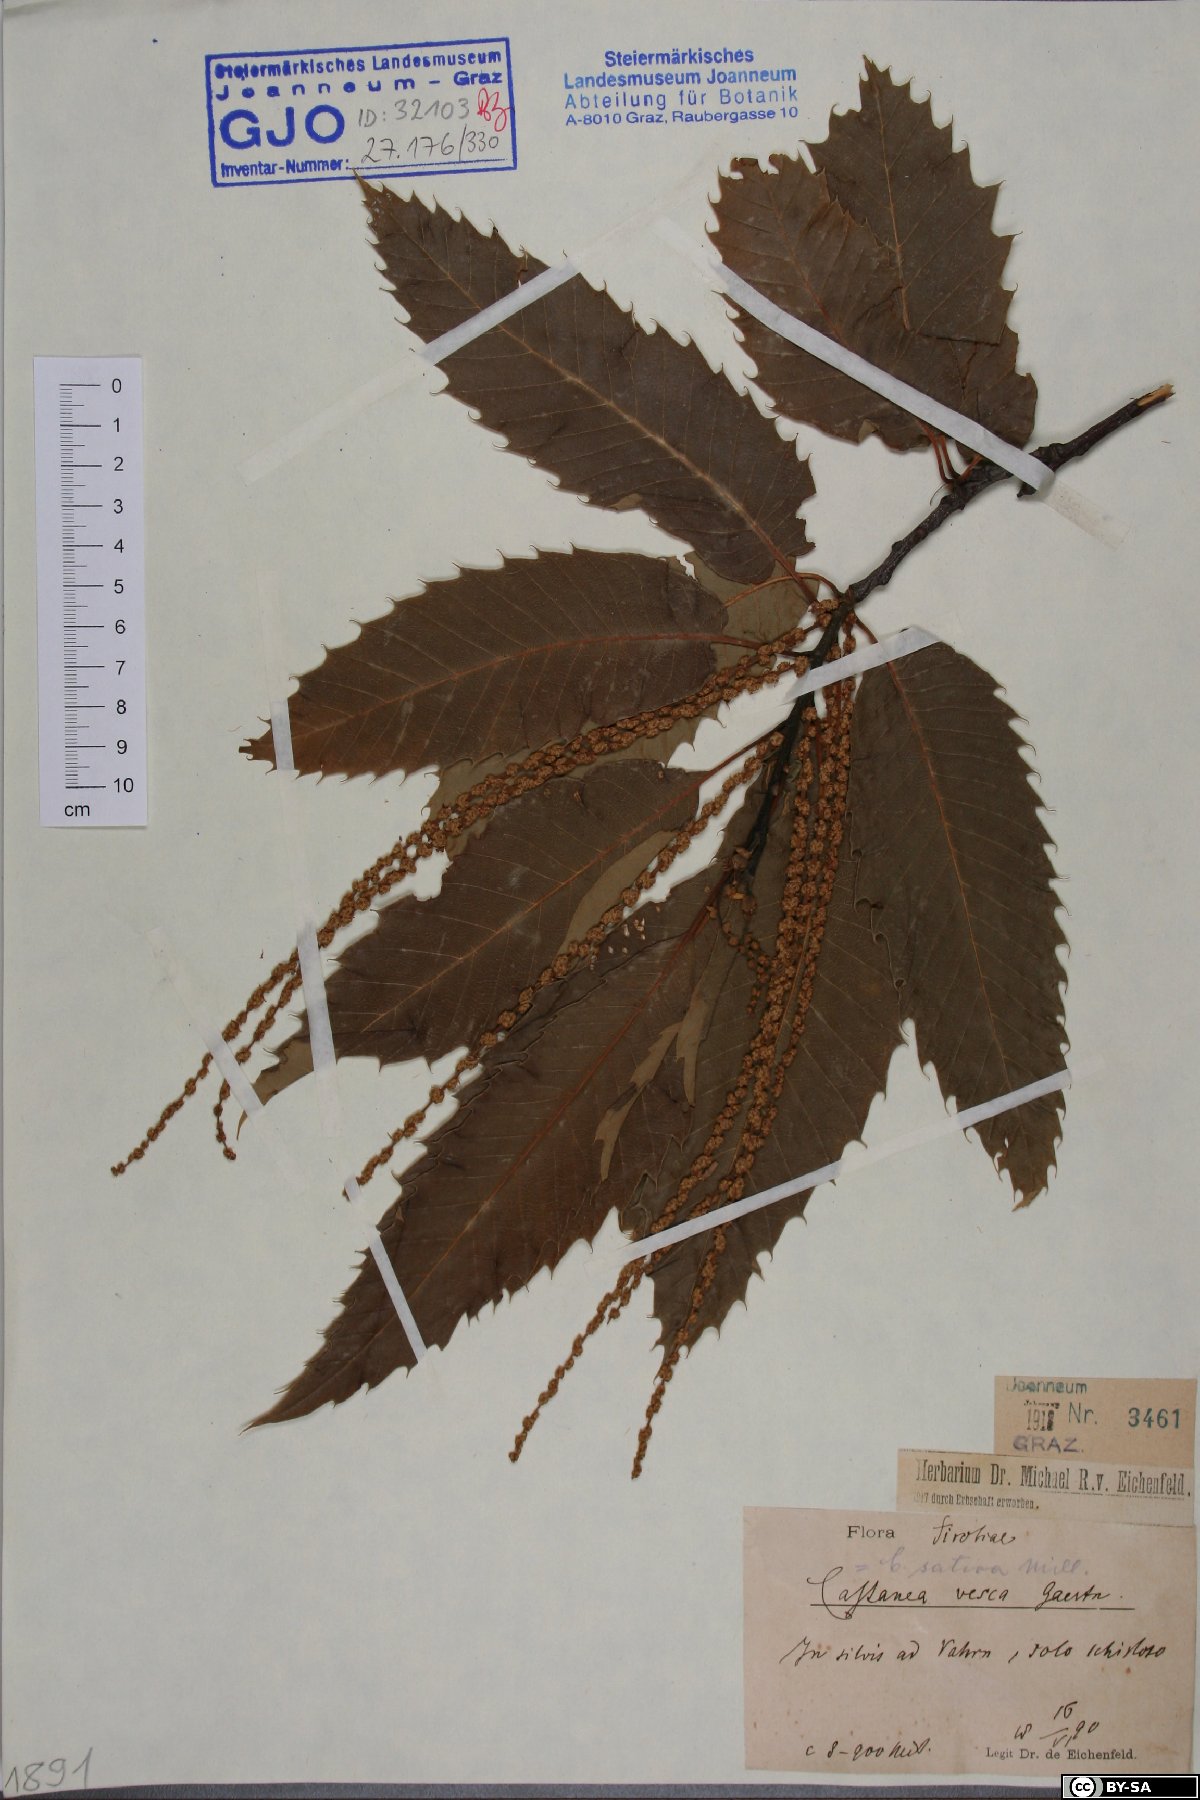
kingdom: Plantae
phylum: Tracheophyta
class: Magnoliopsida
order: Fagales
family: Fagaceae
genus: Castanea
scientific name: Castanea sativa
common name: Sweet chestnut
